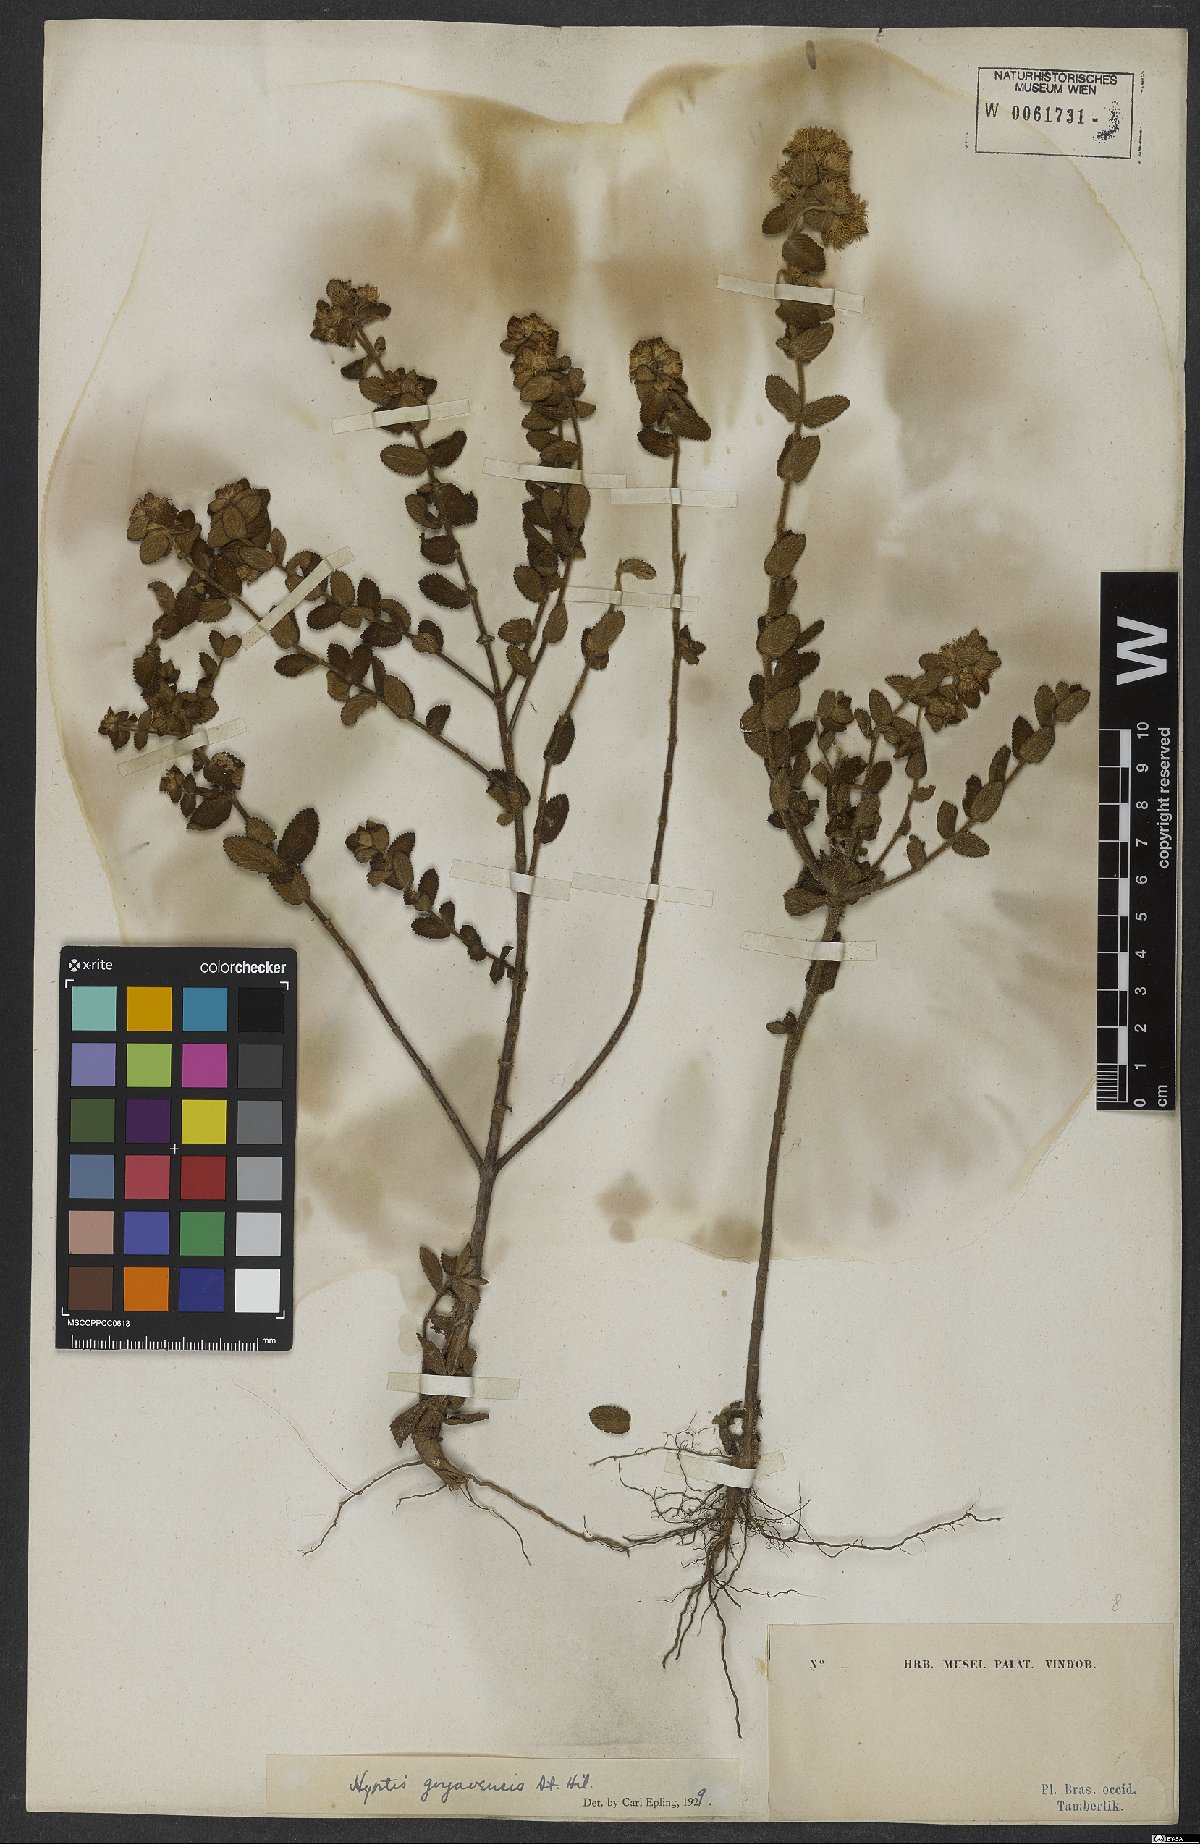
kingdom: Plantae
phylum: Tracheophyta
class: Magnoliopsida
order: Lamiales
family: Lamiaceae
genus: Hyptis
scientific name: Hyptis crenata
